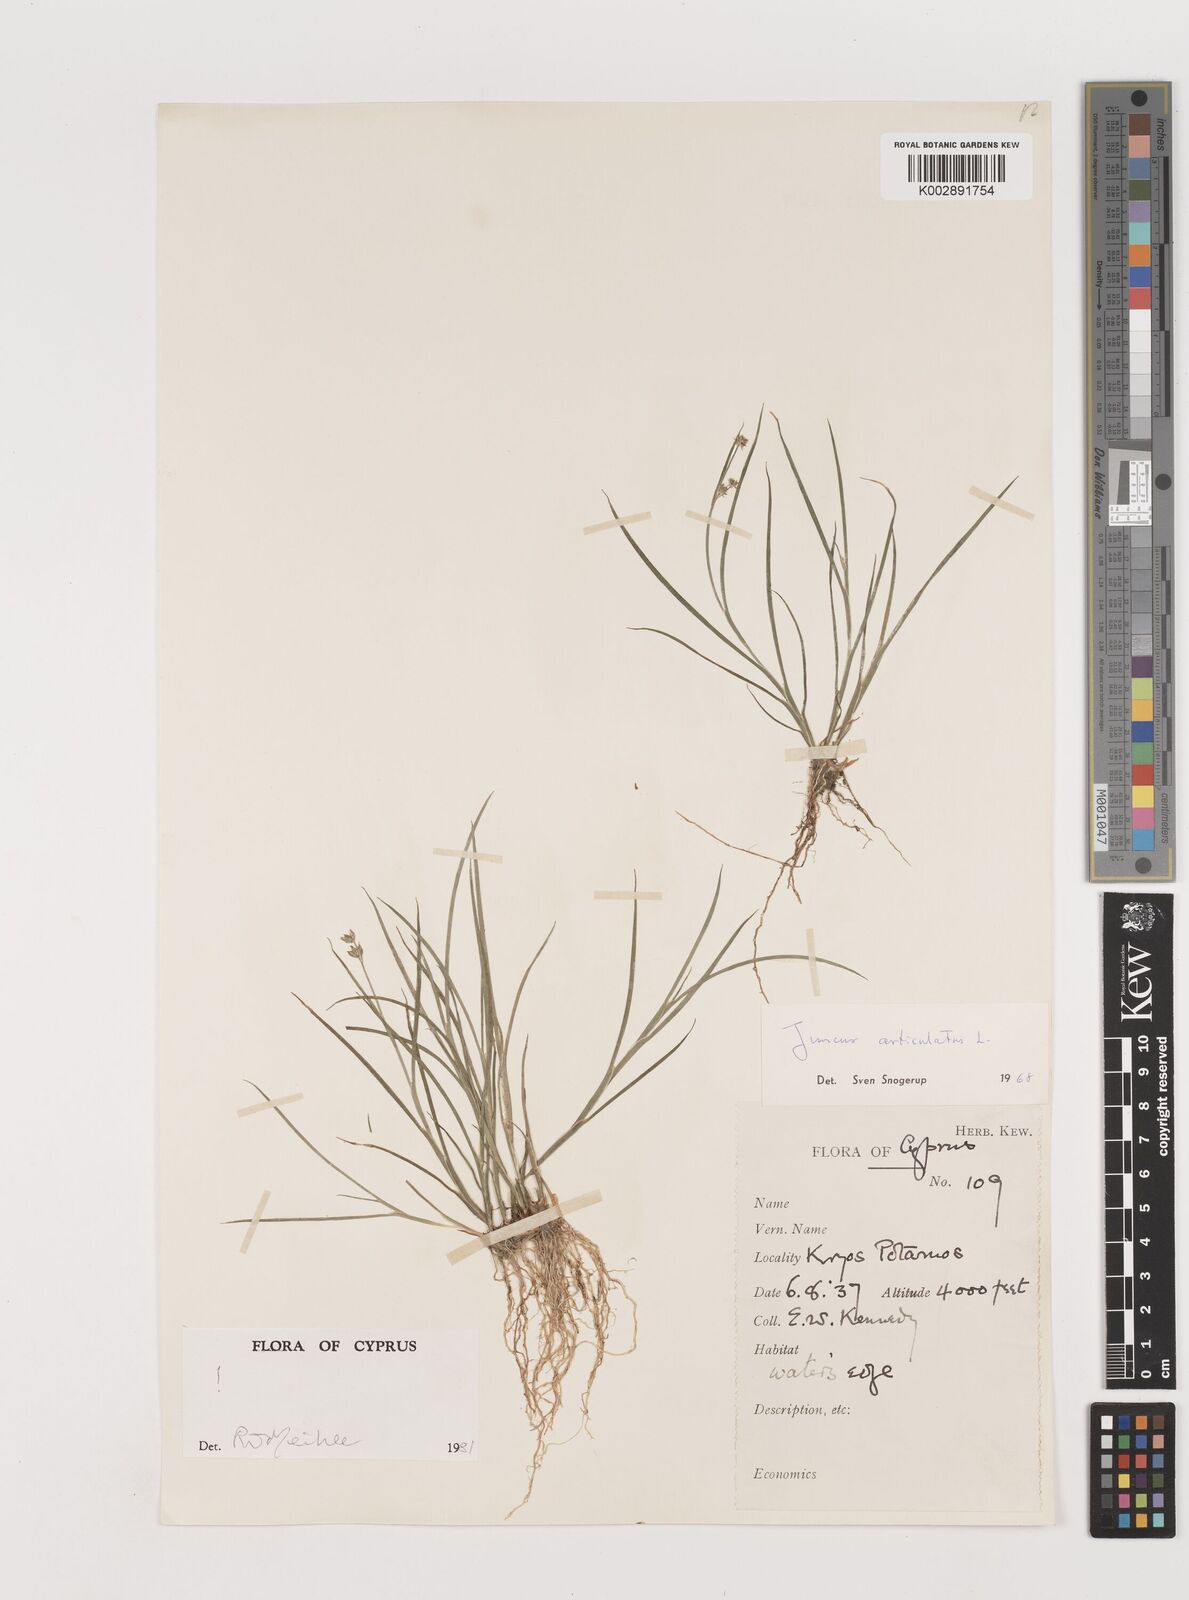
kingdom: Plantae
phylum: Tracheophyta
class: Liliopsida
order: Poales
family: Juncaceae
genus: Juncus
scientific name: Juncus articulatus
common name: Jointed rush
